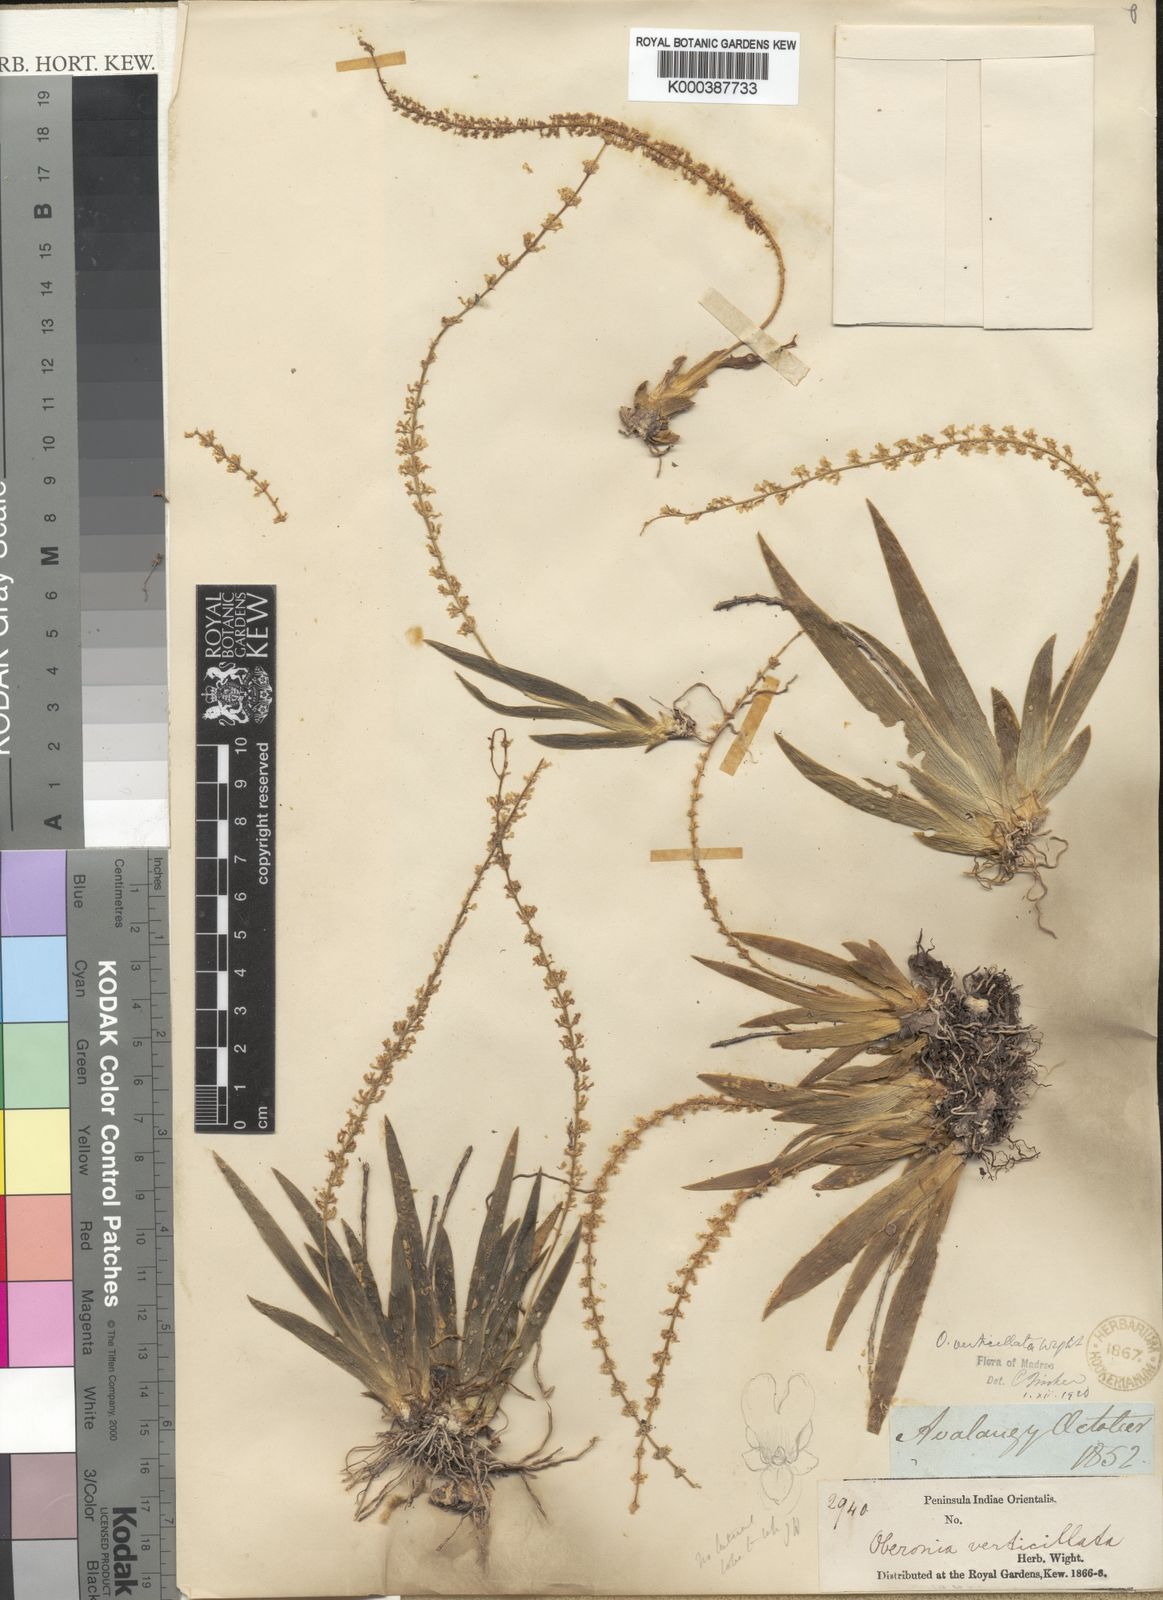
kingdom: Plantae
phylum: Tracheophyta
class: Liliopsida
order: Asparagales
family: Orchidaceae
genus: Oberonia
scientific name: Oberonia verticillata
